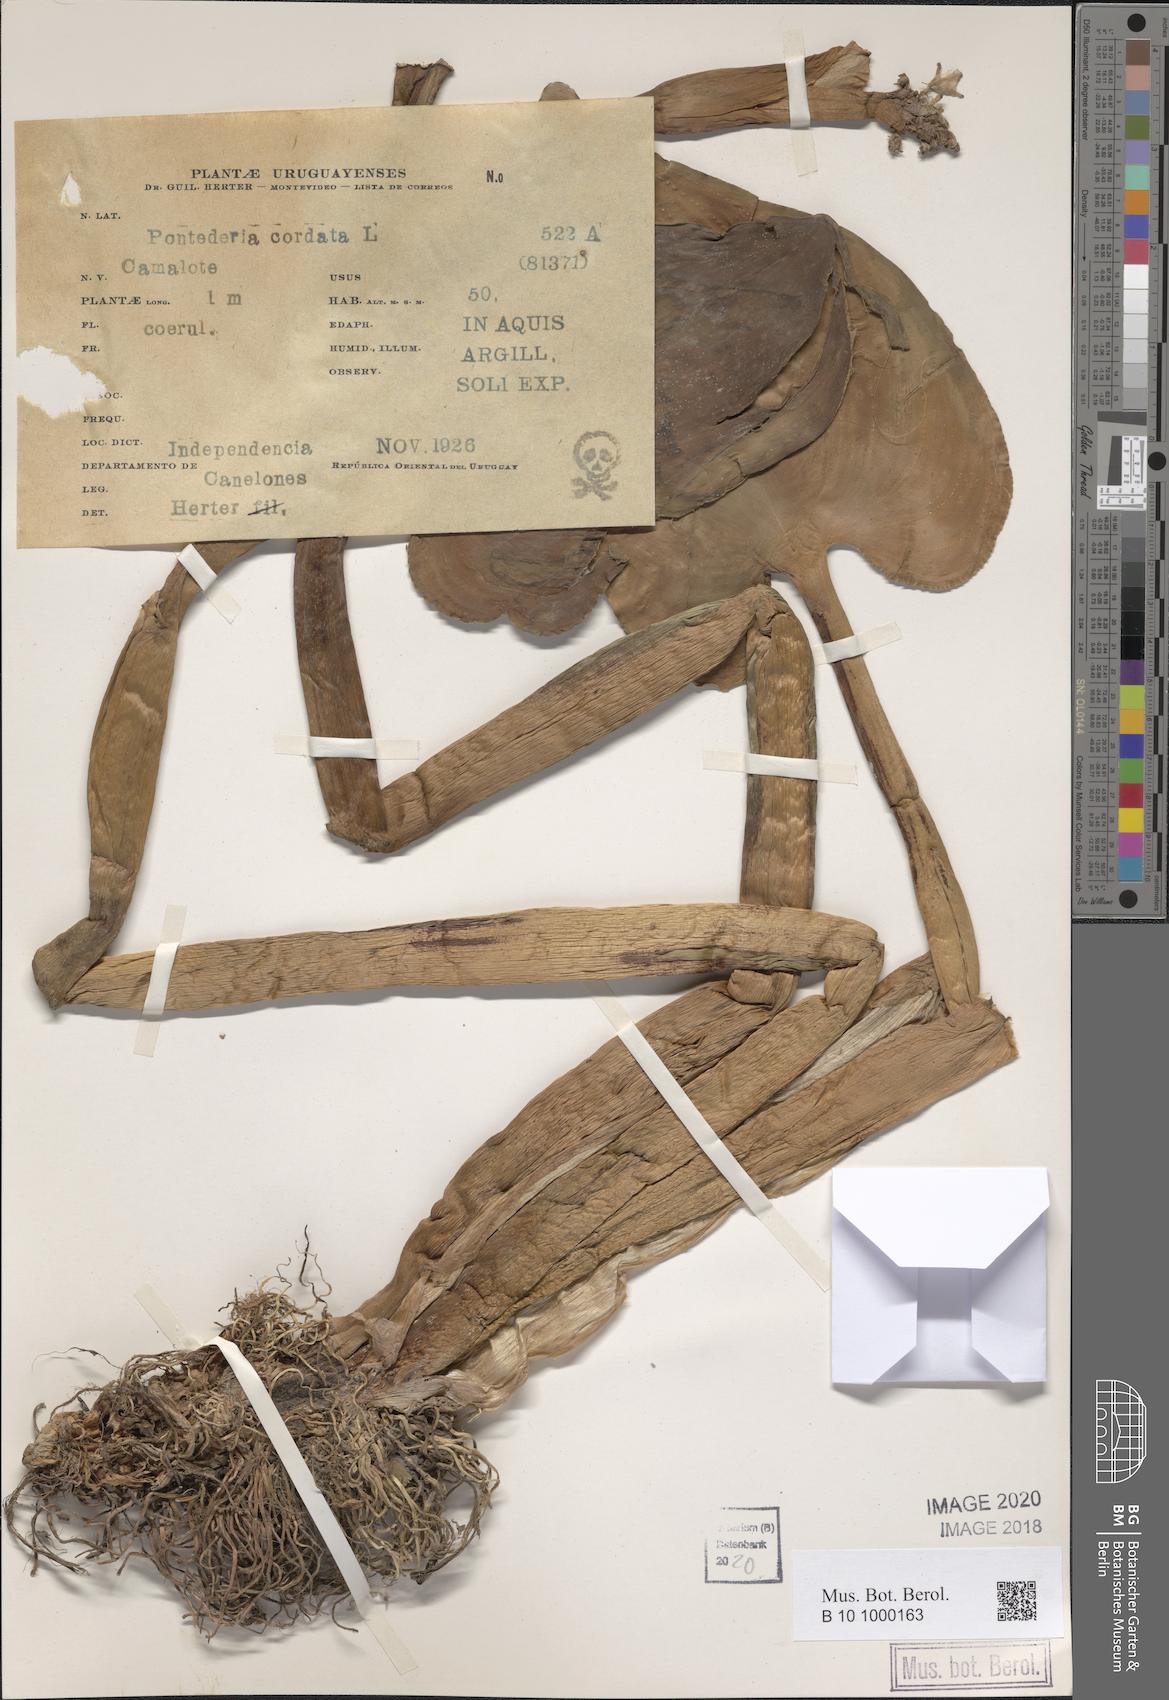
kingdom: Plantae
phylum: Tracheophyta
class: Liliopsida
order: Commelinales
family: Pontederiaceae
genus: Pontederia
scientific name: Pontederia cordata
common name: Pickerelweed
